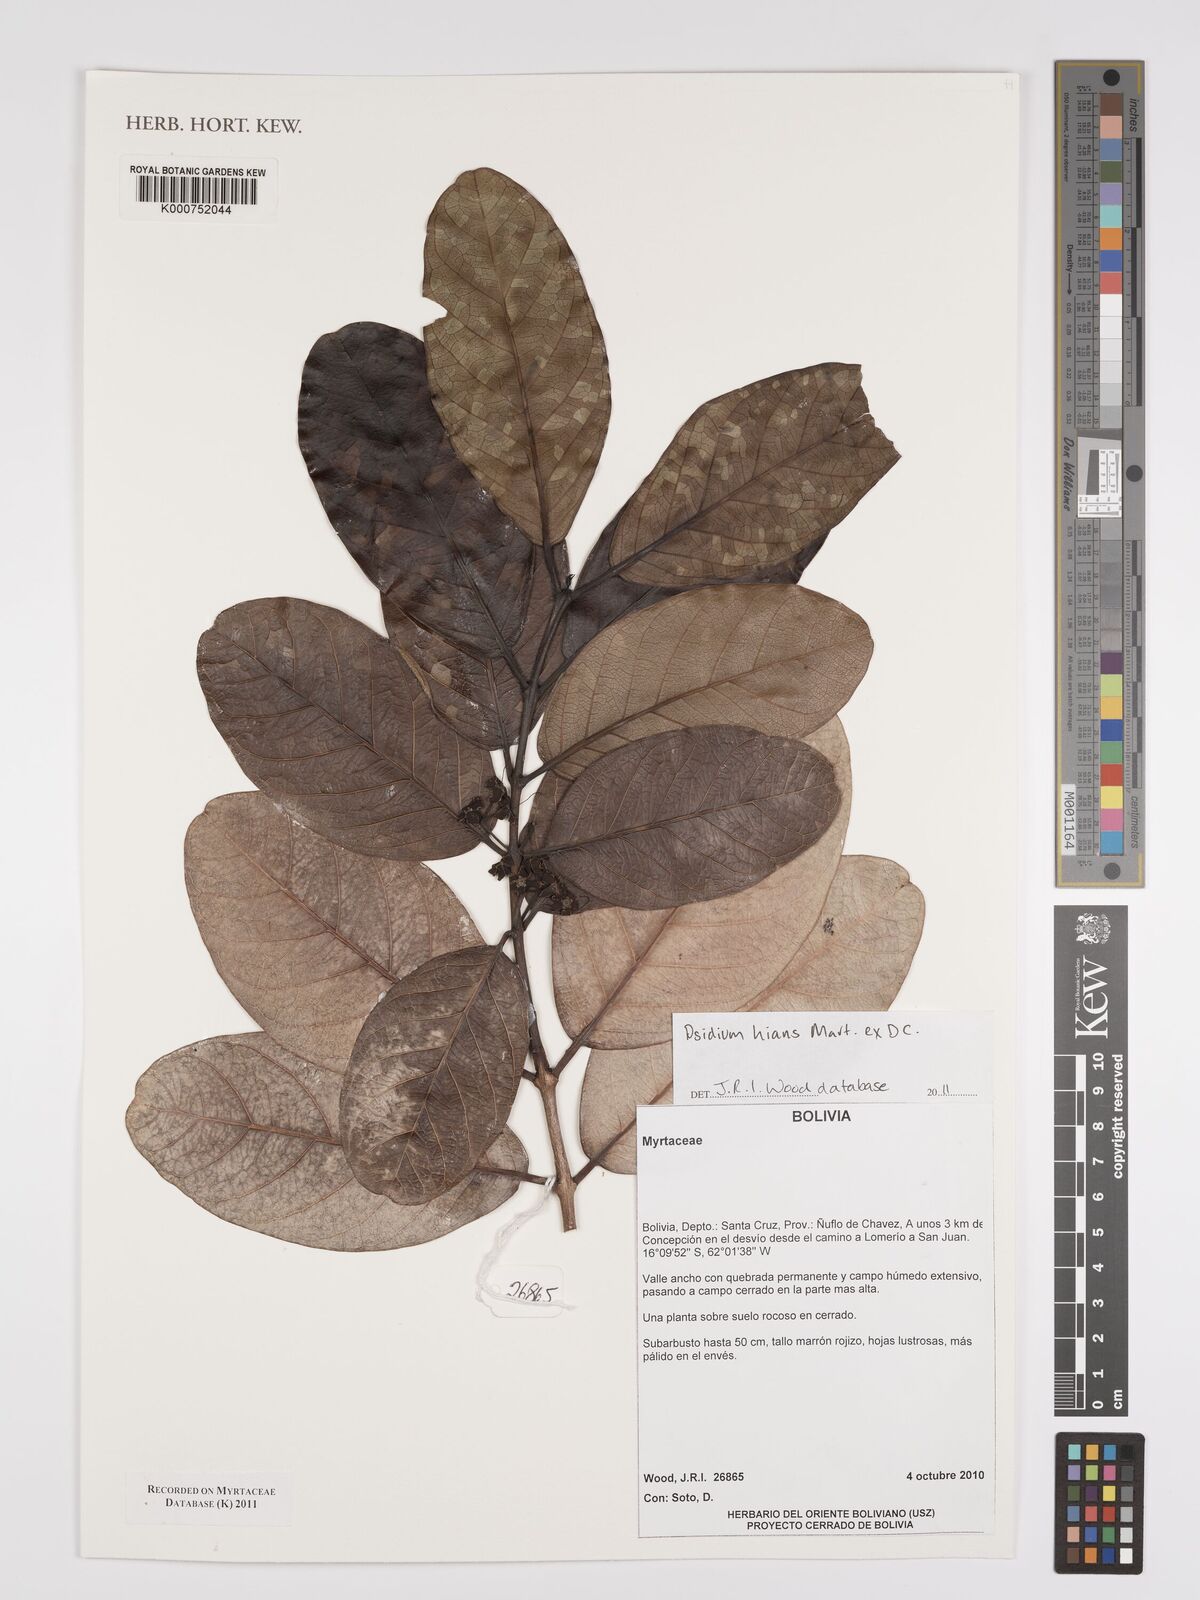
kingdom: Plantae
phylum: Tracheophyta
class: Magnoliopsida
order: Myrtales
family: Myrtaceae
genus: Psidium
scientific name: Psidium hians
